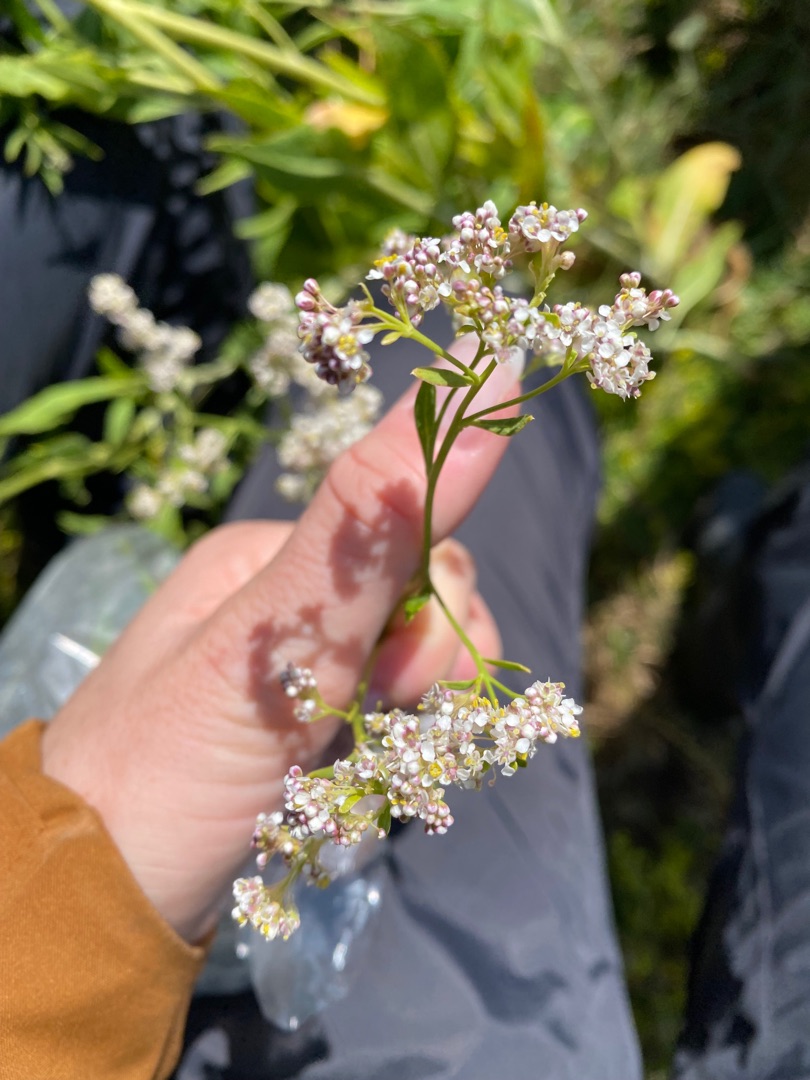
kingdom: Plantae
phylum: Tracheophyta
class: Magnoliopsida
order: Brassicales
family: Brassicaceae
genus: Lepidium
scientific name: Lepidium latifolium
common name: Strand-karse
